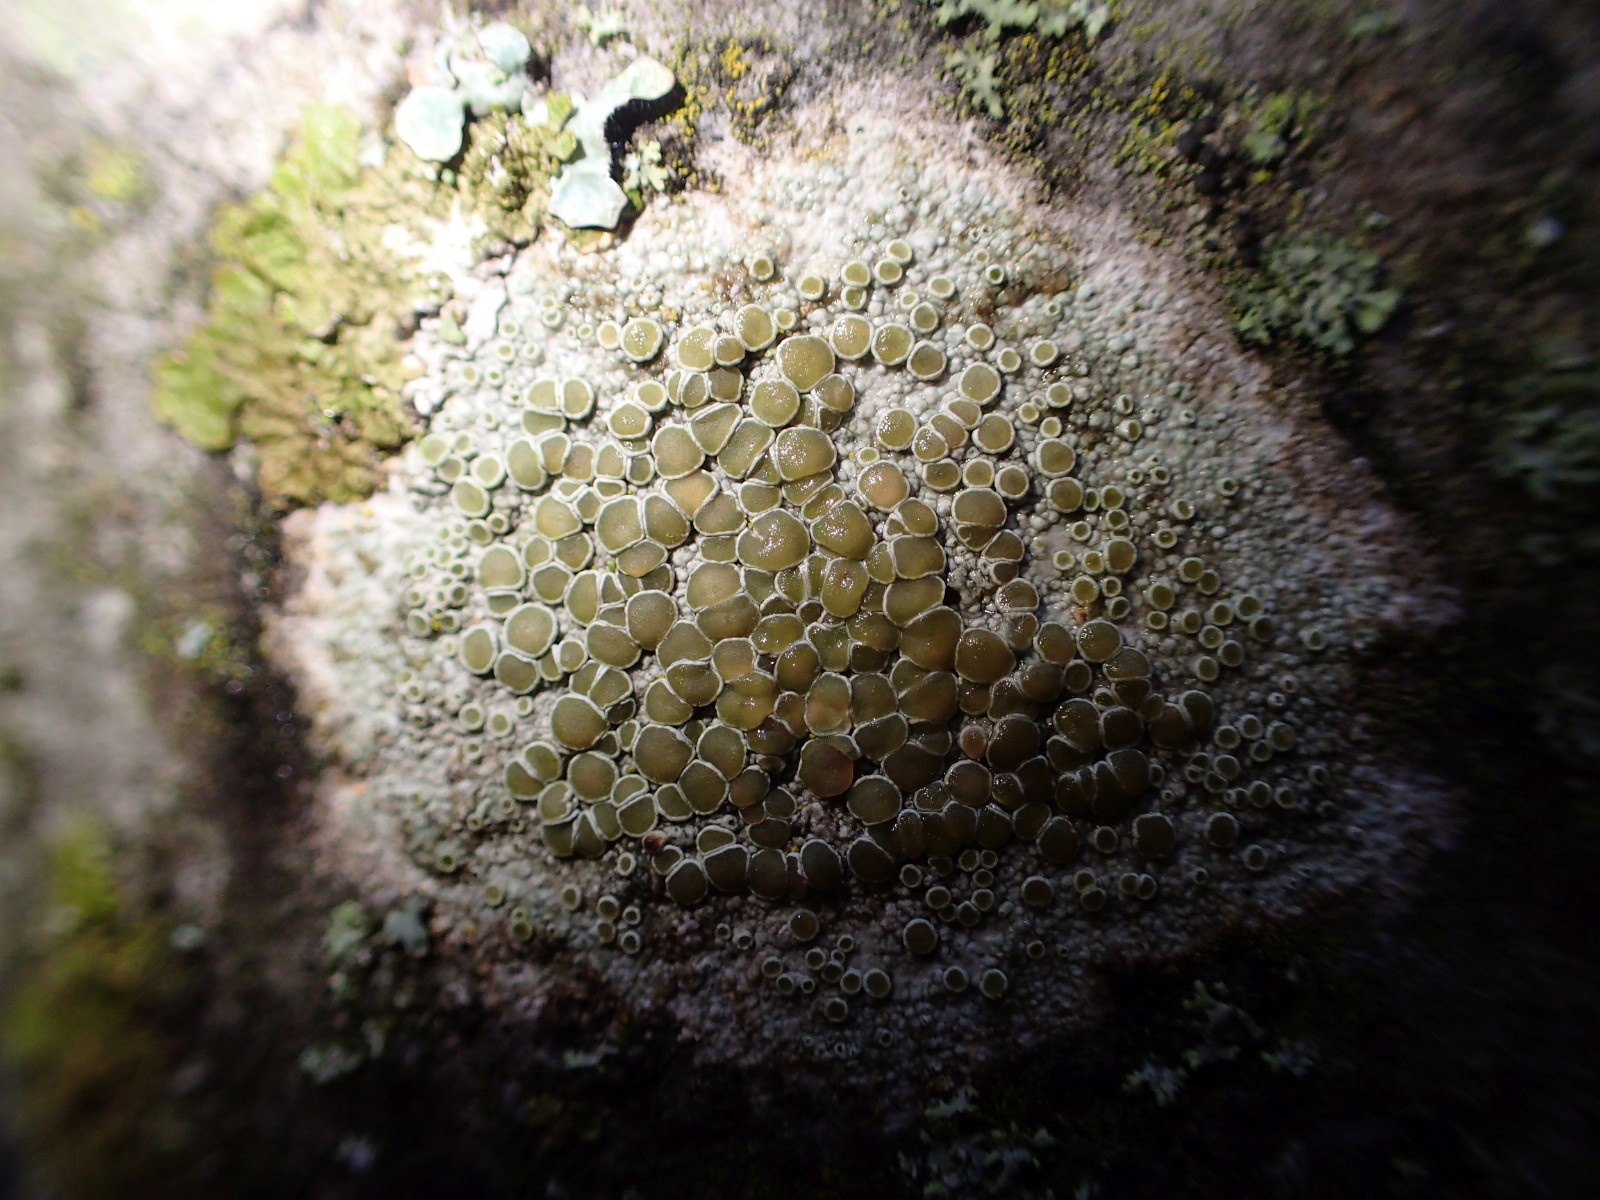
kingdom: Fungi
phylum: Ascomycota
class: Lecanoromycetes
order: Lecanorales
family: Lecanoraceae
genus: Lecanora
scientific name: Lecanora chlarotera
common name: brun kantskivelav
